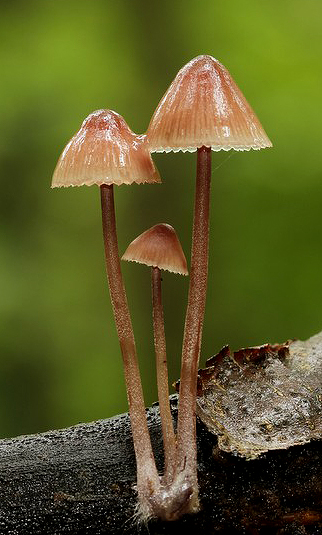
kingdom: Fungi
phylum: Basidiomycota
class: Agaricomycetes
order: Agaricales
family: Mycenaceae
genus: Mycena
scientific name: Mycena haematopus
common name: blødende huesvamp
